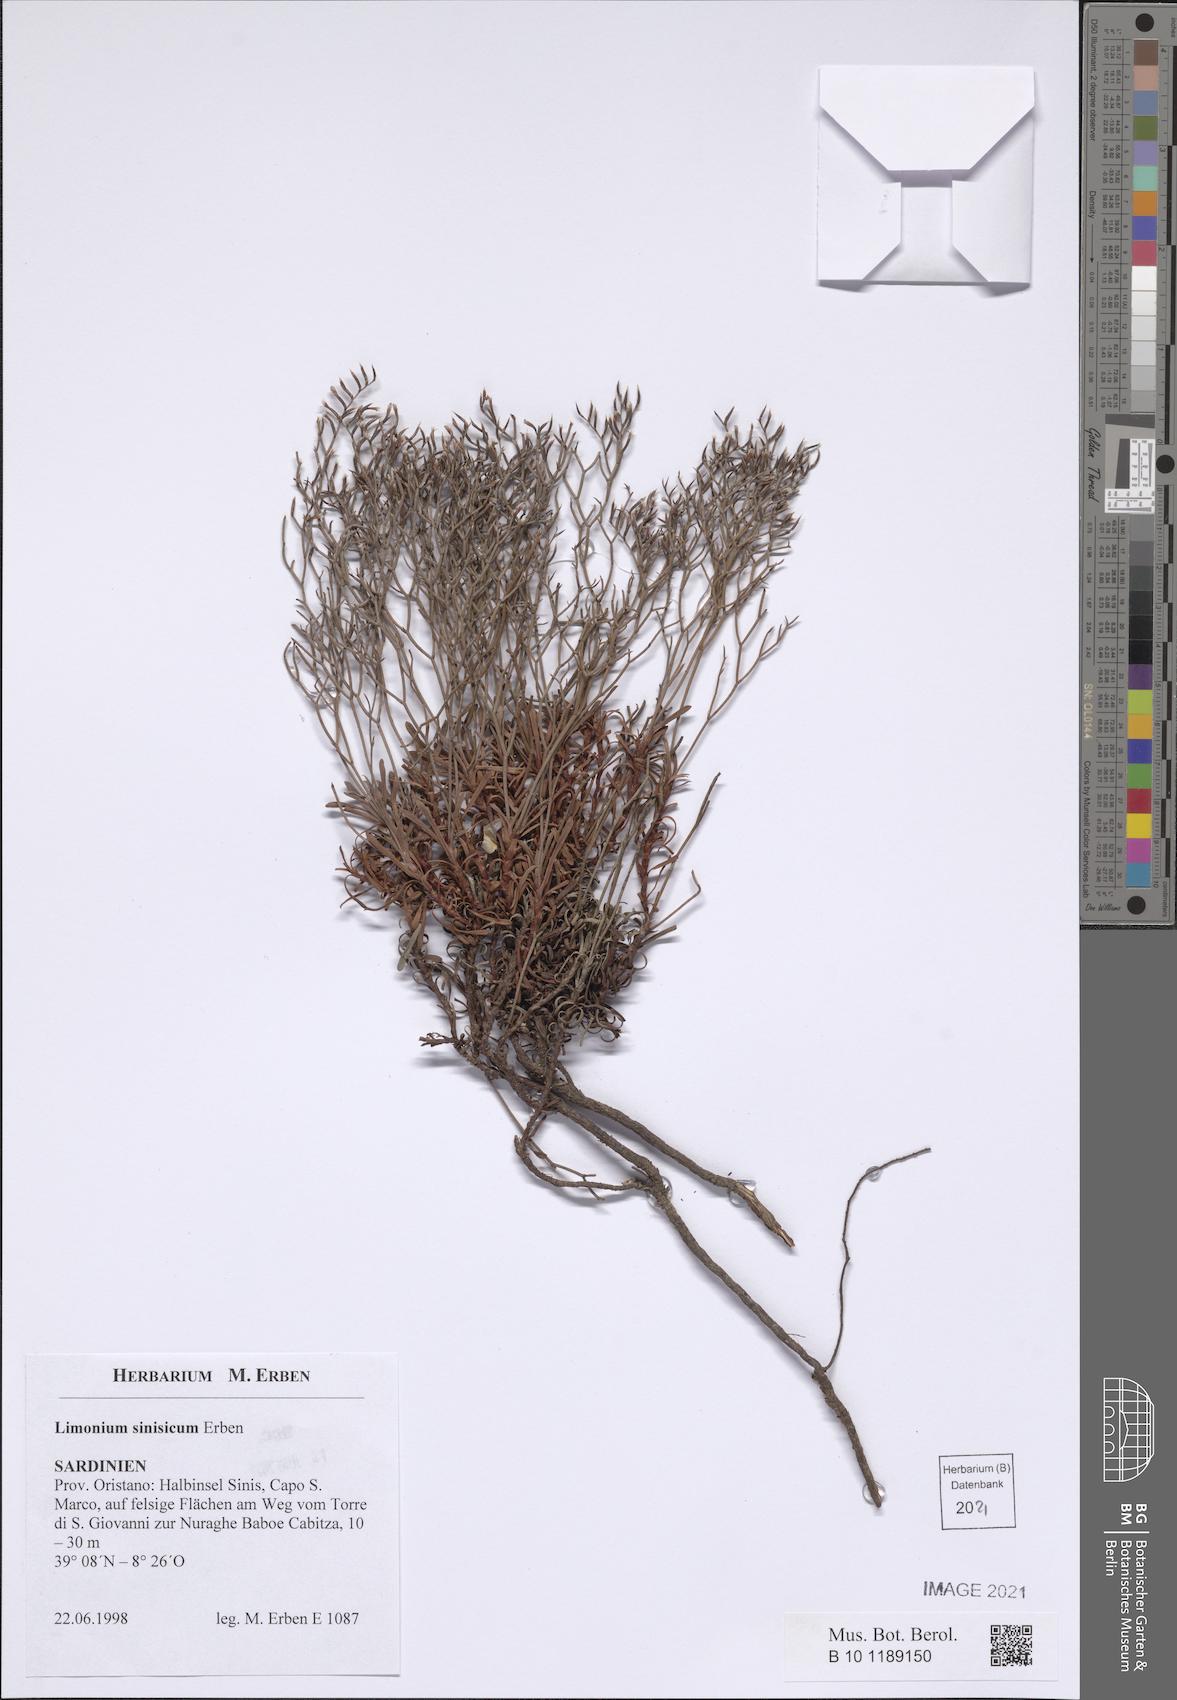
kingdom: Plantae
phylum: Tracheophyta
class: Magnoliopsida
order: Caryophyllales
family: Plumbaginaceae
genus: Limonium
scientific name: Limonium acutifolium
